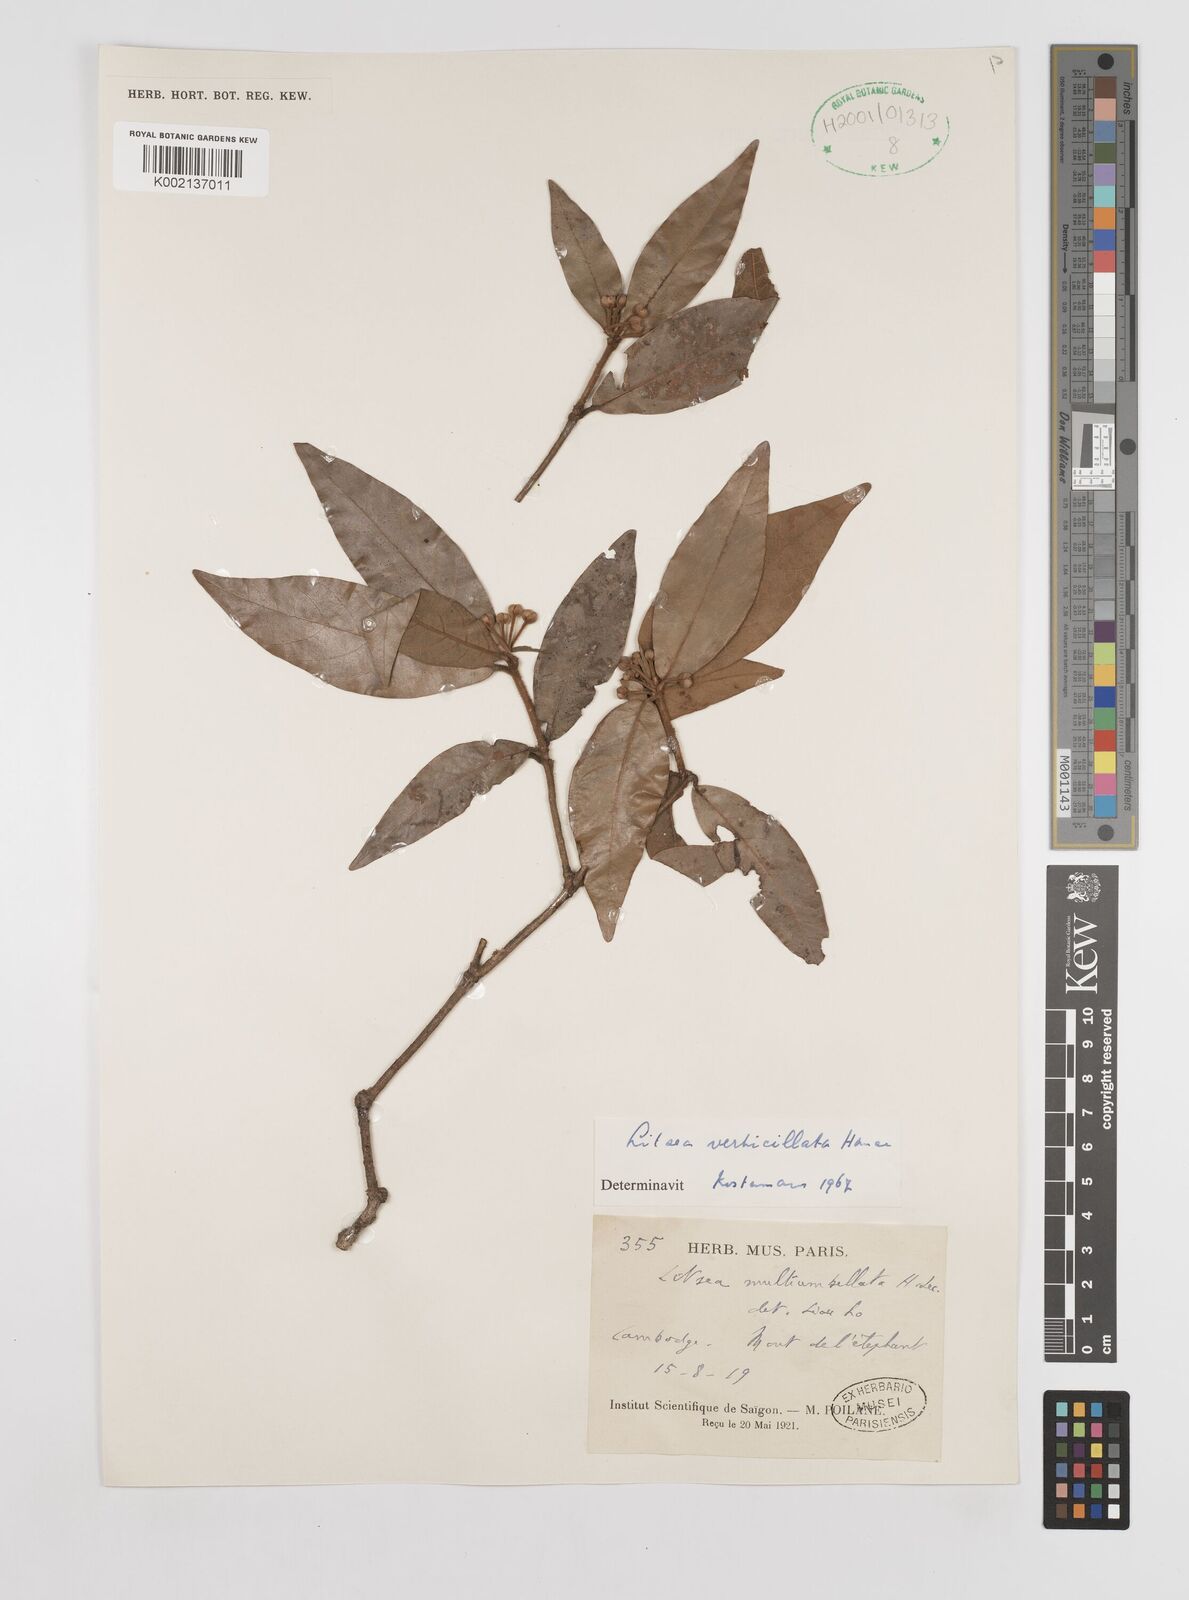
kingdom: Plantae
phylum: Tracheophyta
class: Magnoliopsida
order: Laurales
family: Lauraceae
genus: Litsea
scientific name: Litsea verticillata
